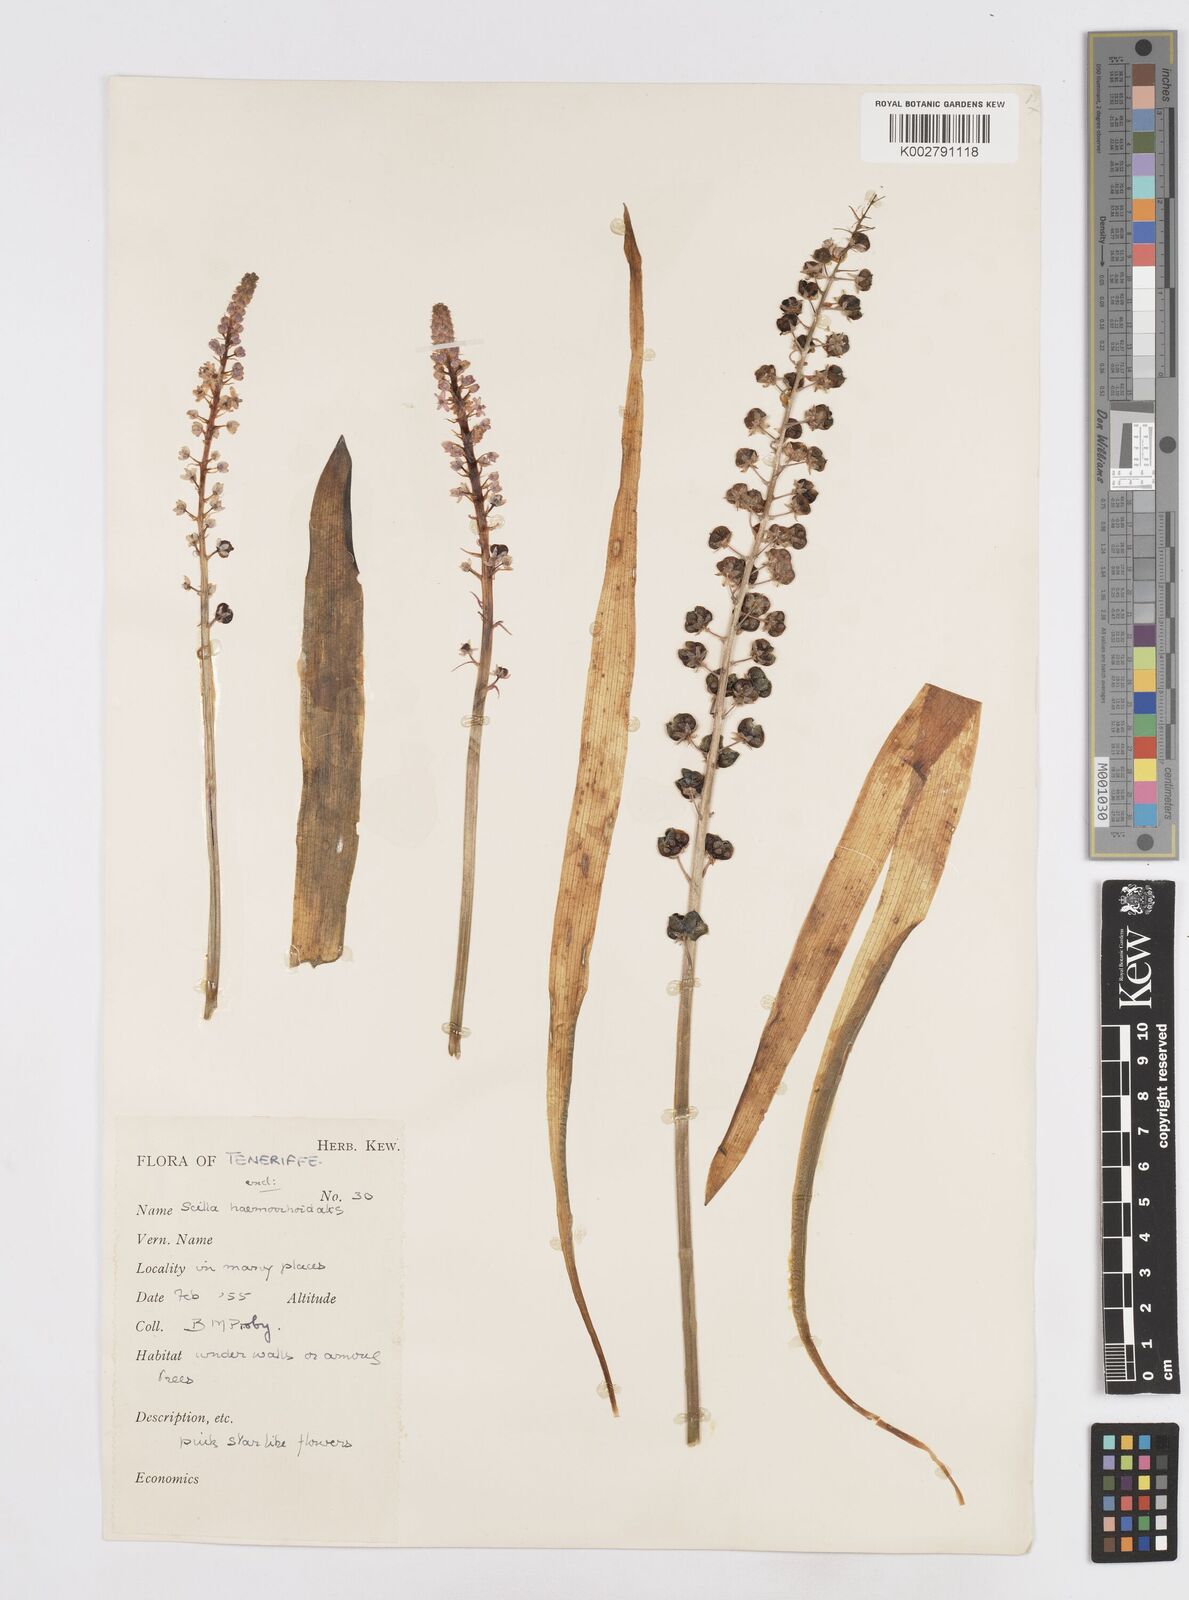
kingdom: Plantae
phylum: Tracheophyta
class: Liliopsida
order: Asparagales
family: Asparagaceae
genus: Scilla
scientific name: Scilla haemorrhoidalis
